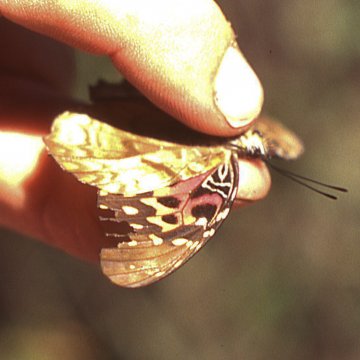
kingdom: Animalia
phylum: Arthropoda
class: Insecta
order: Lepidoptera
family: Nymphalidae
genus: Anetia
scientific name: Anetia jaegeri
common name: Hispaniolan King
